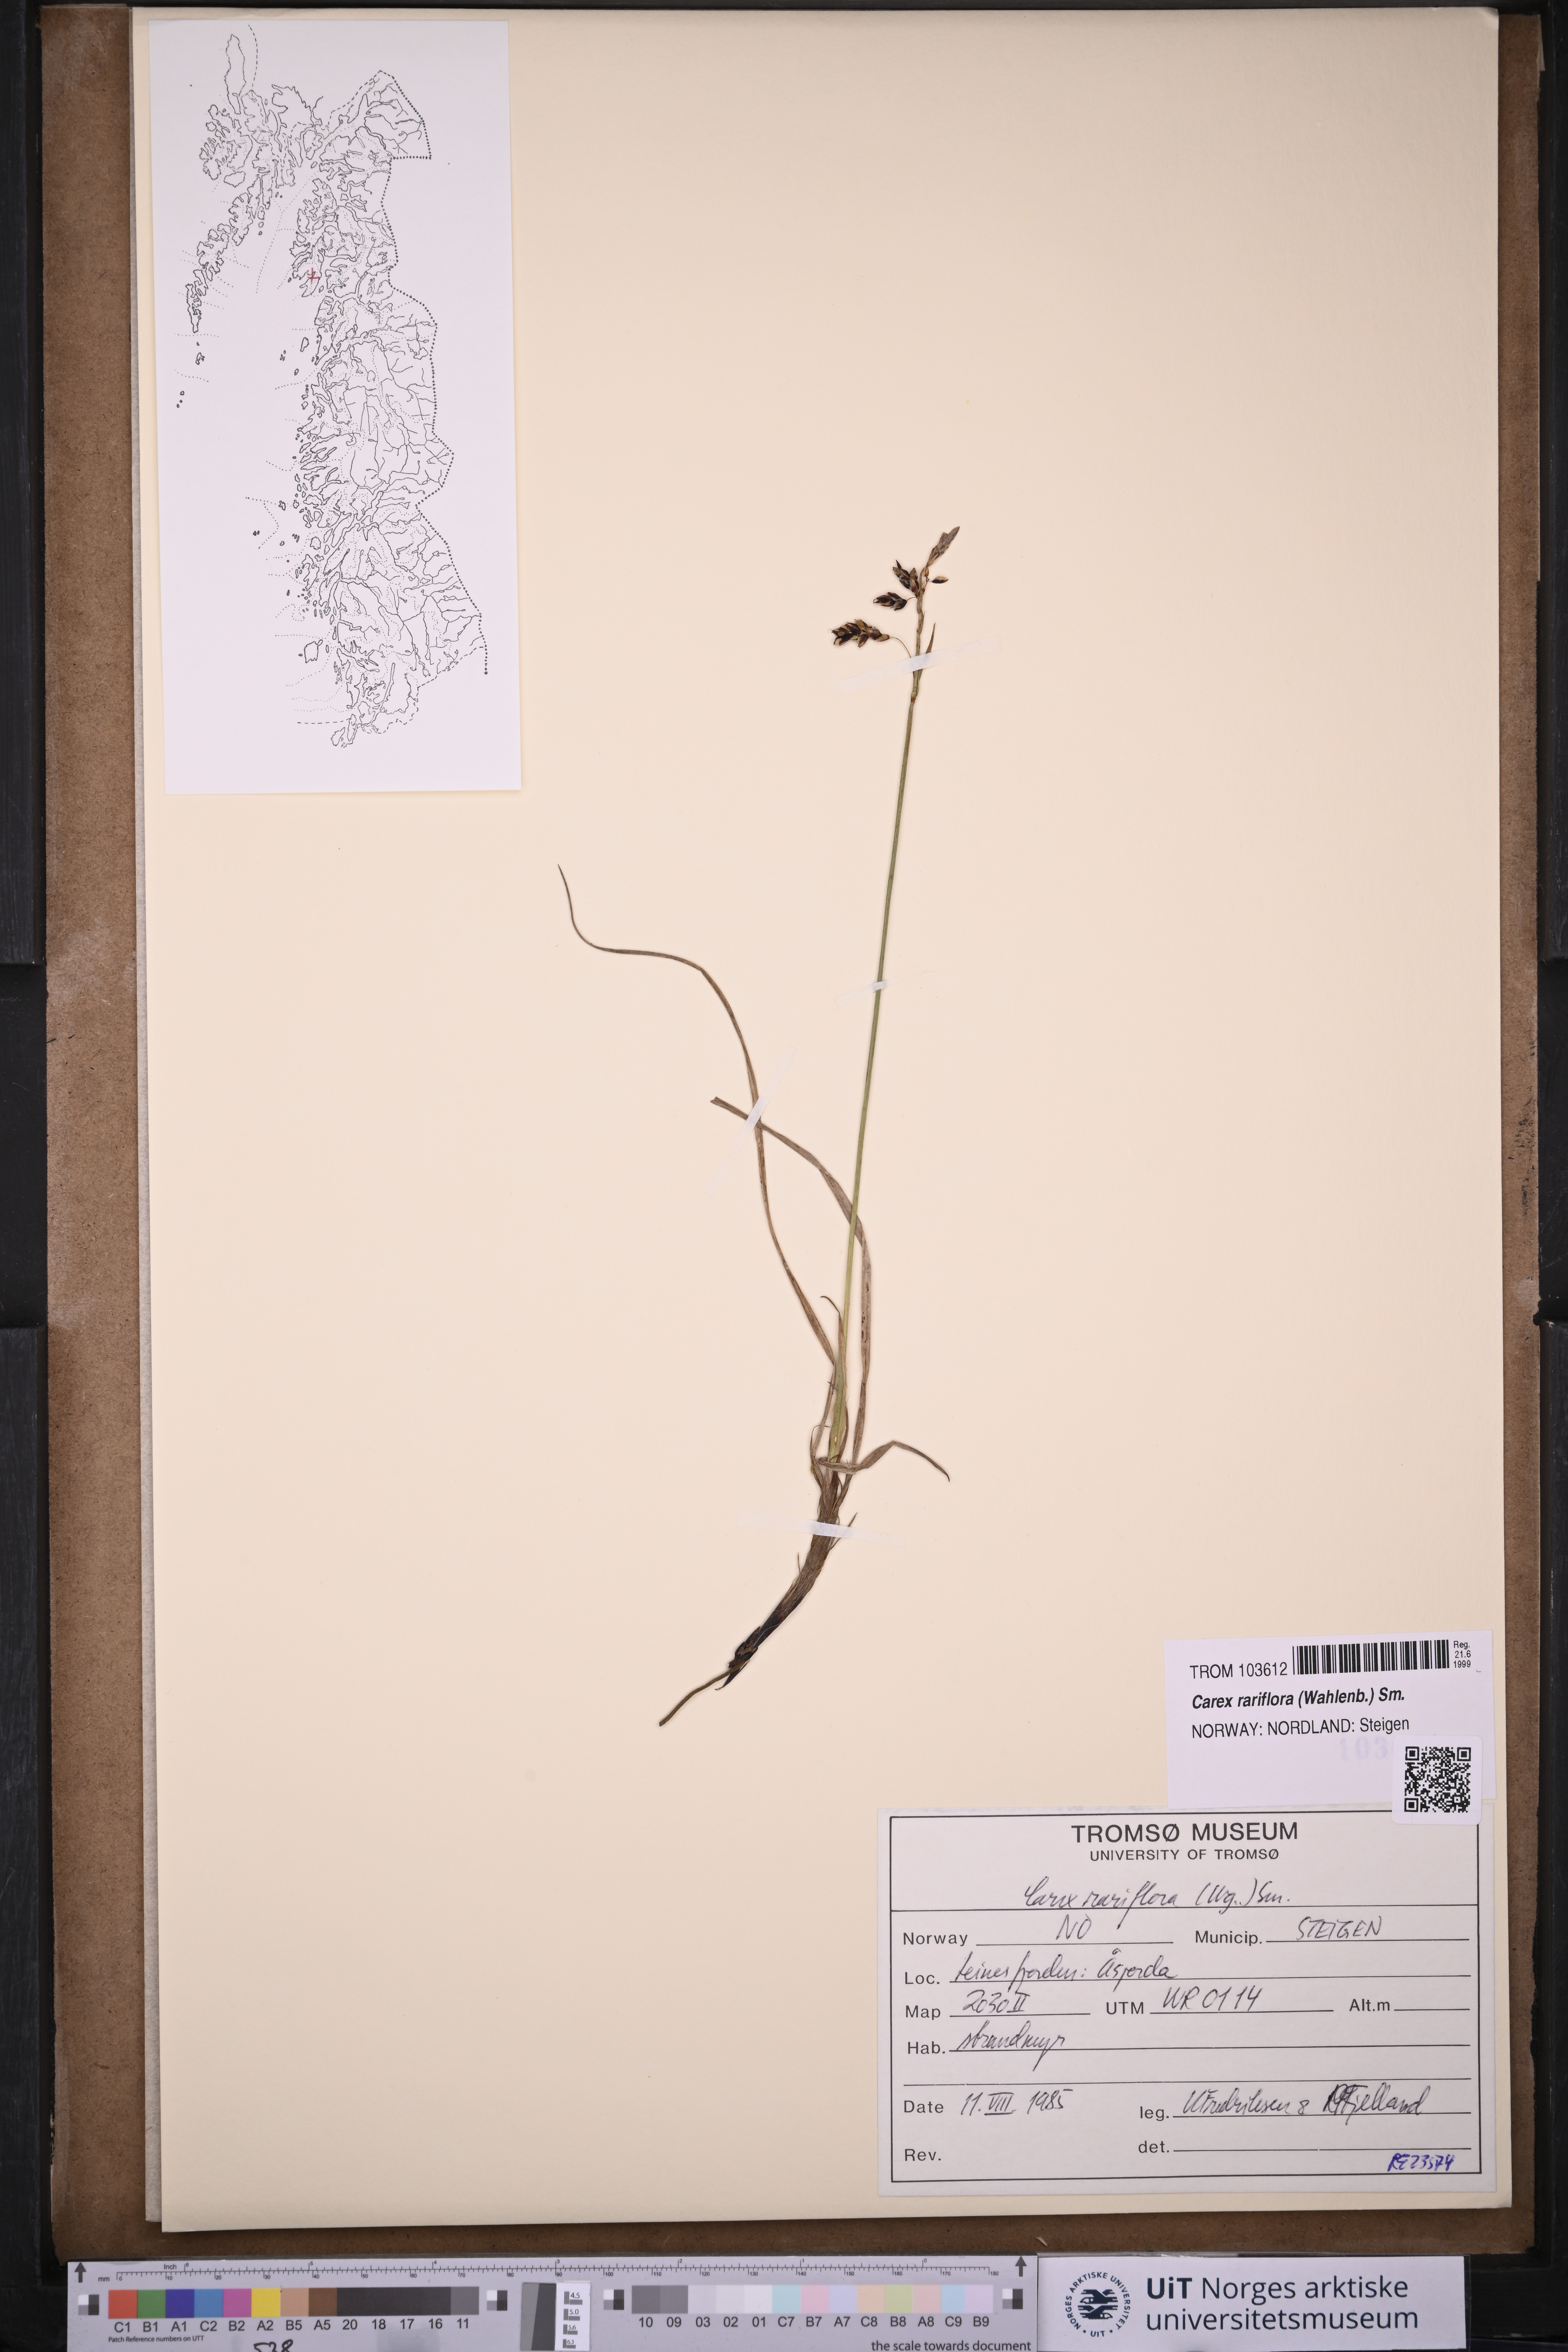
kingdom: Plantae
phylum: Tracheophyta
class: Liliopsida
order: Poales
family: Cyperaceae
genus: Carex
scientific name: Carex rariflora
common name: Loose-flowered alpine sedge
